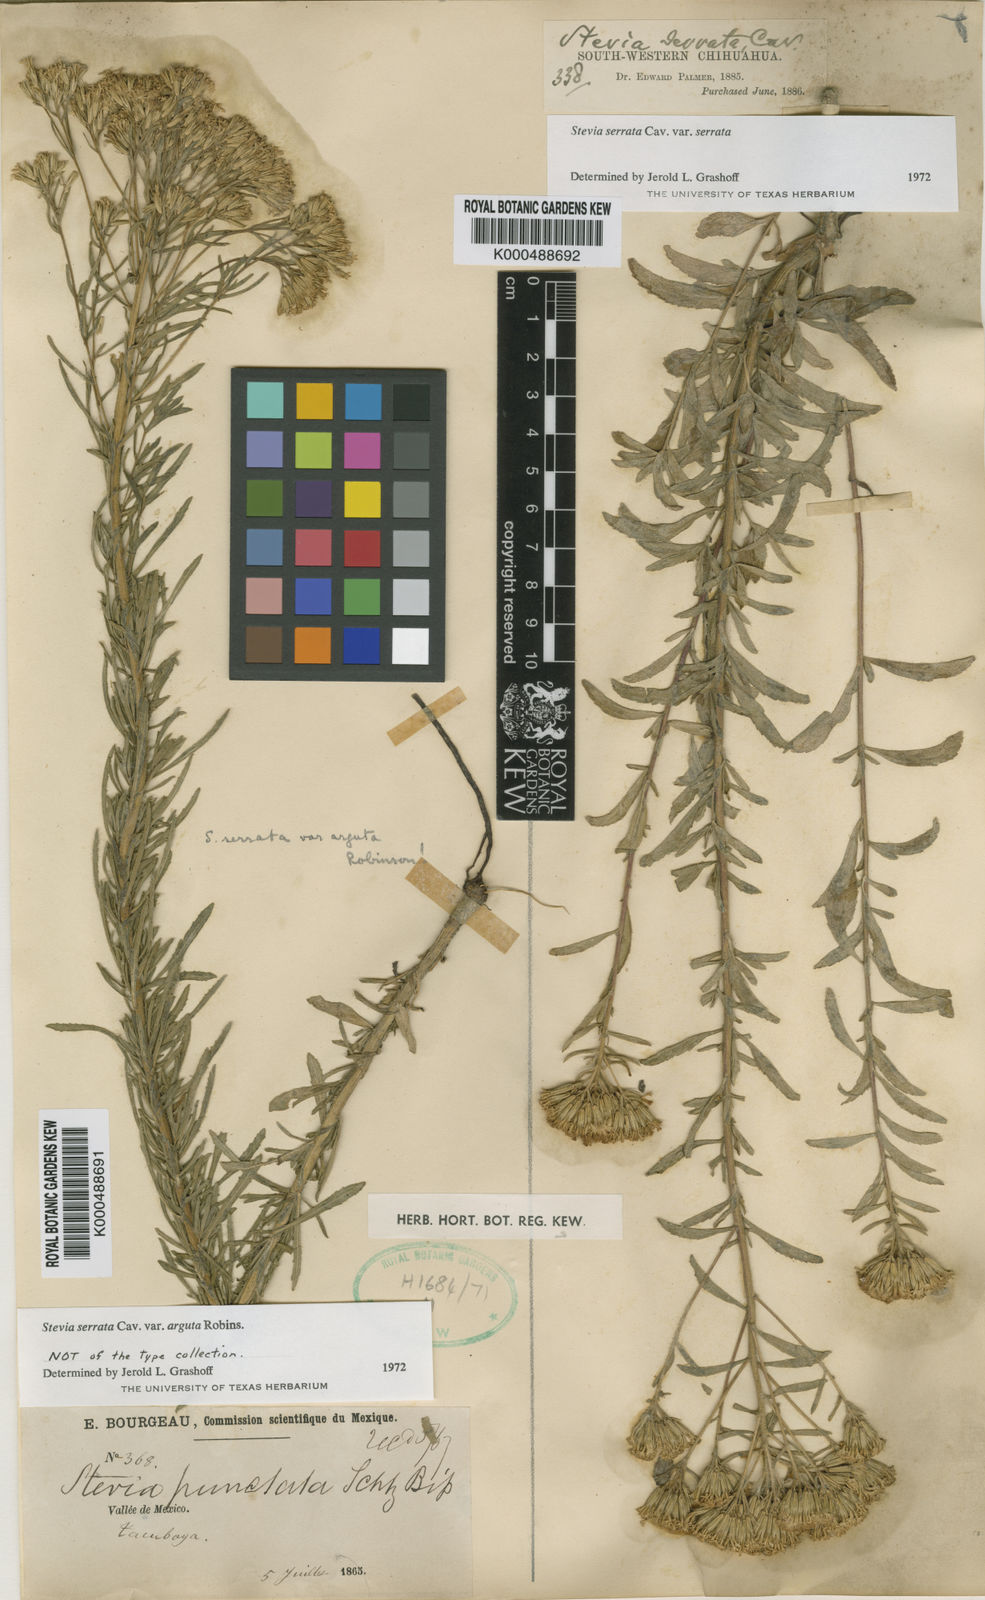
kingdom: Plantae
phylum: Tracheophyta
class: Magnoliopsida
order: Asterales
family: Asteraceae
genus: Stevia
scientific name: Stevia serrata
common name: Sawtooth candyleaf
